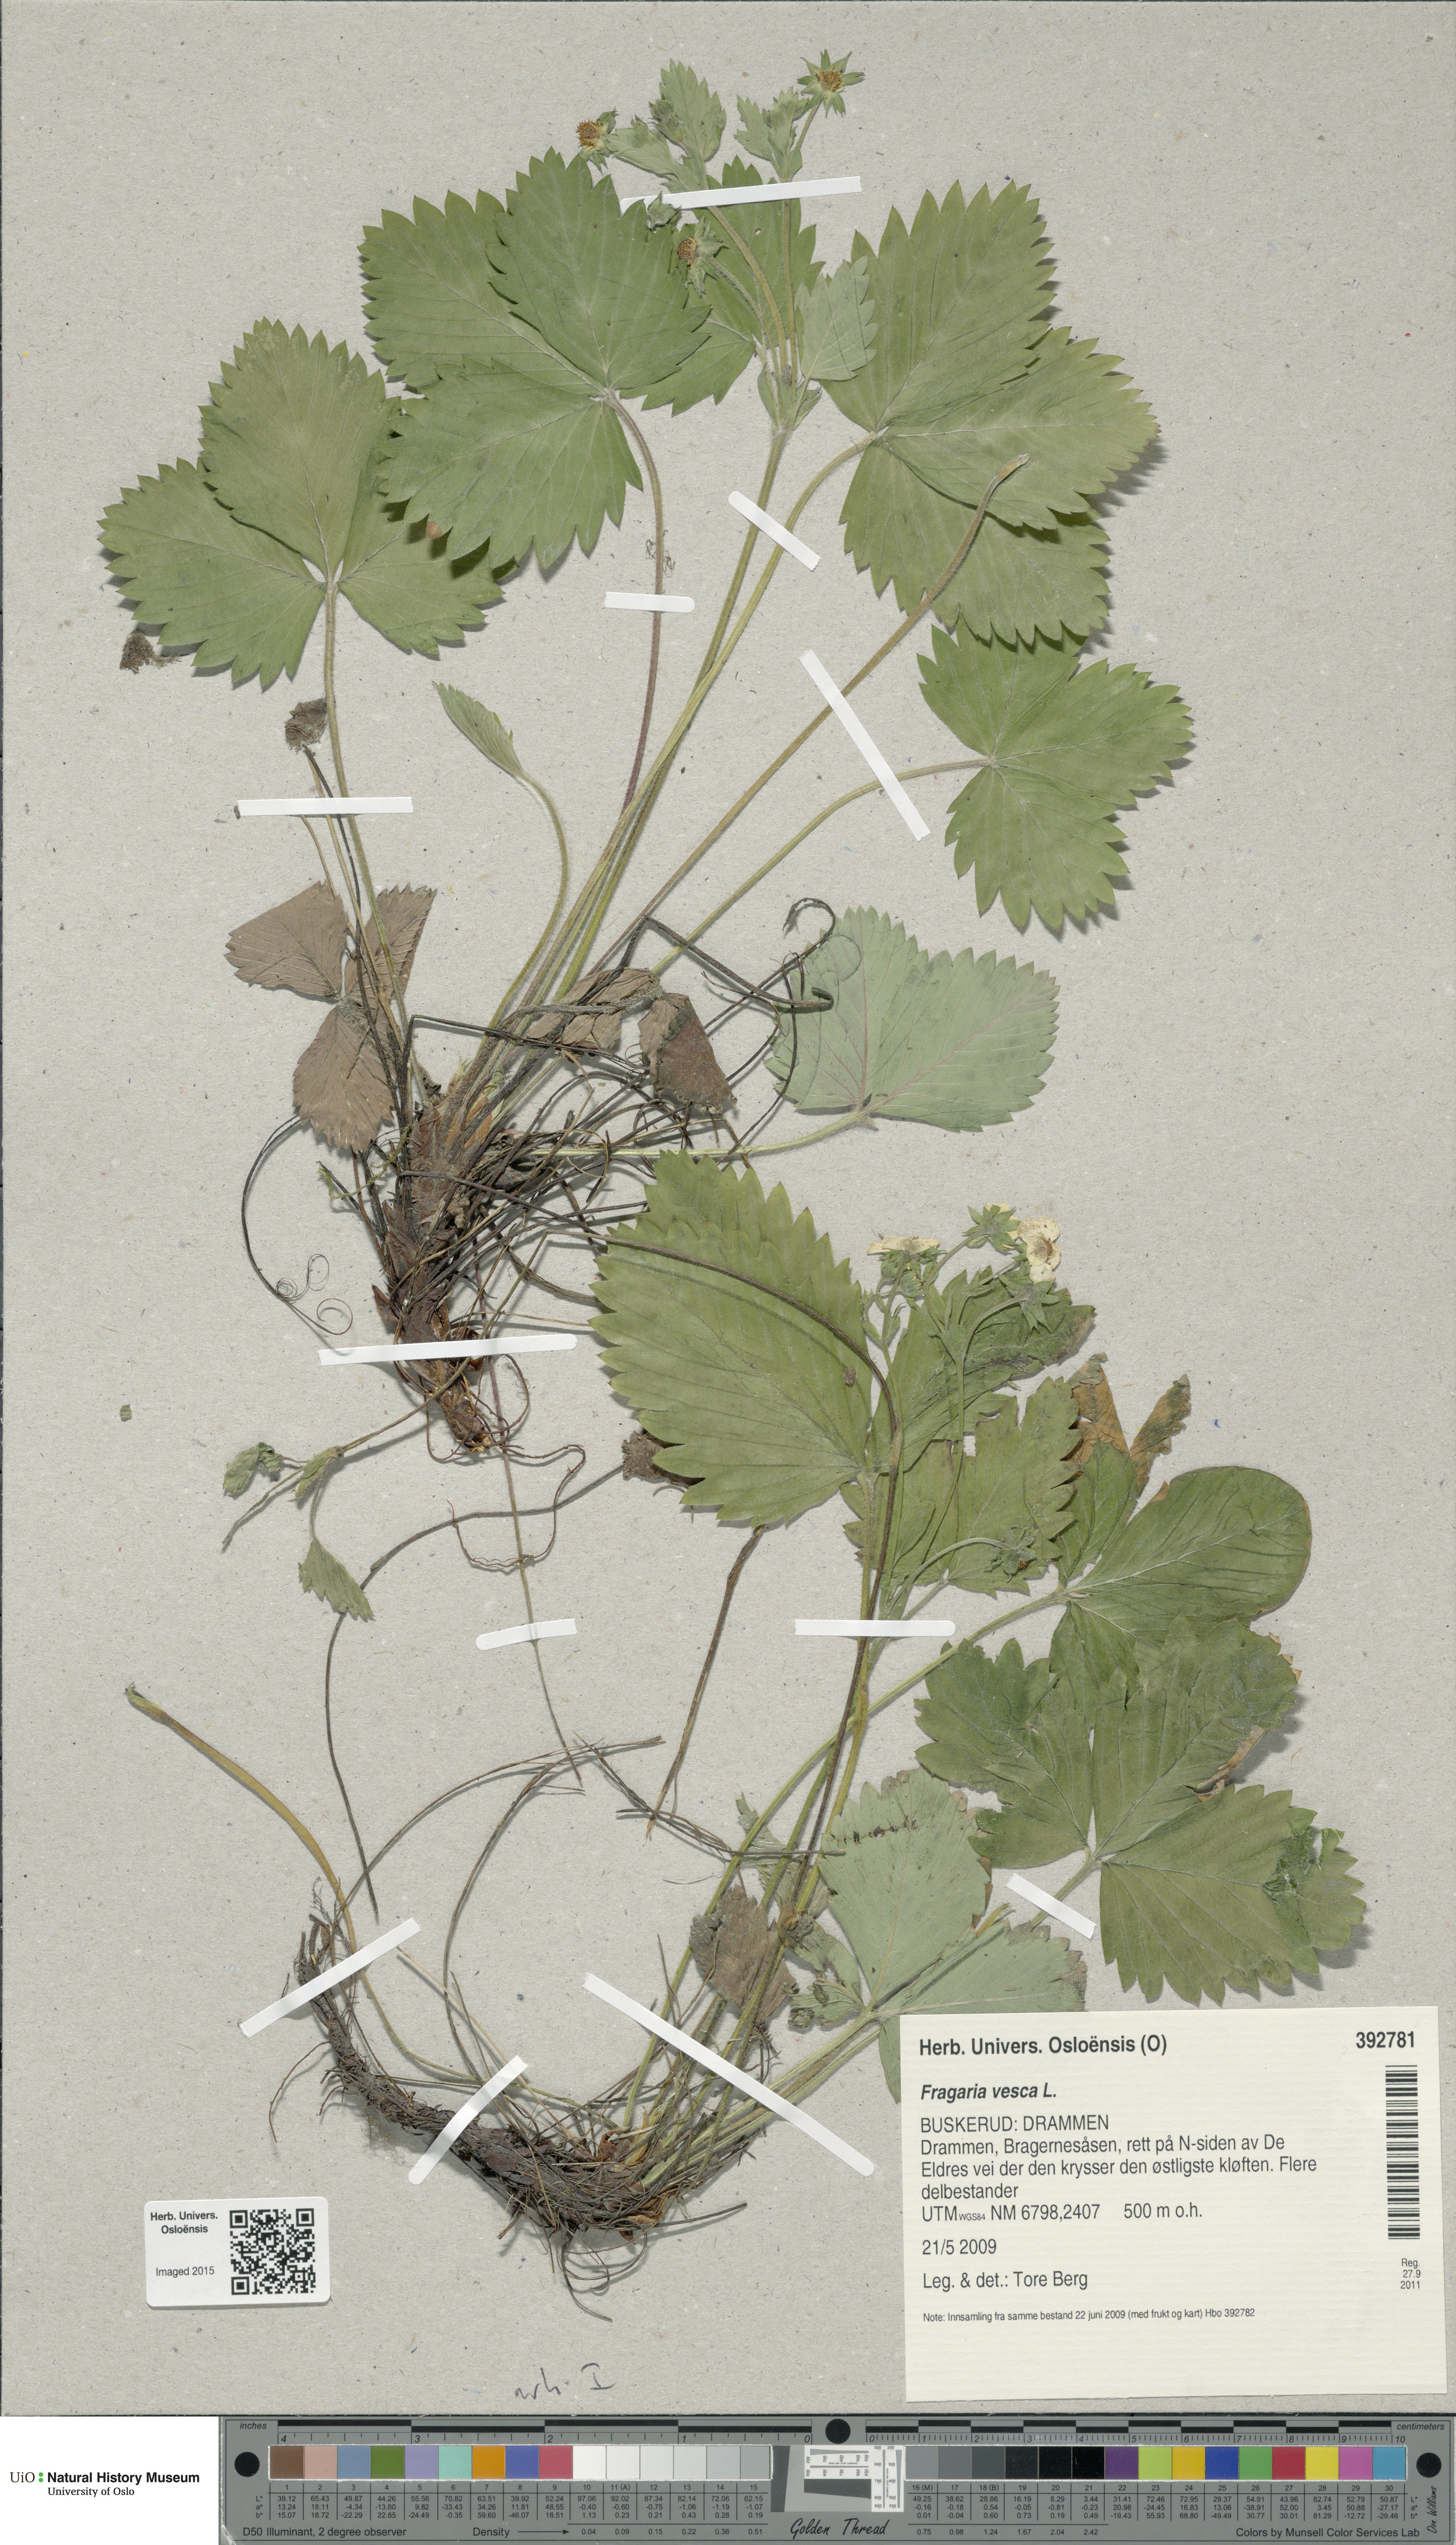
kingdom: Plantae
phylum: Tracheophyta
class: Magnoliopsida
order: Rosales
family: Rosaceae
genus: Fragaria
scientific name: Fragaria vesca
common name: Wild strawberry
